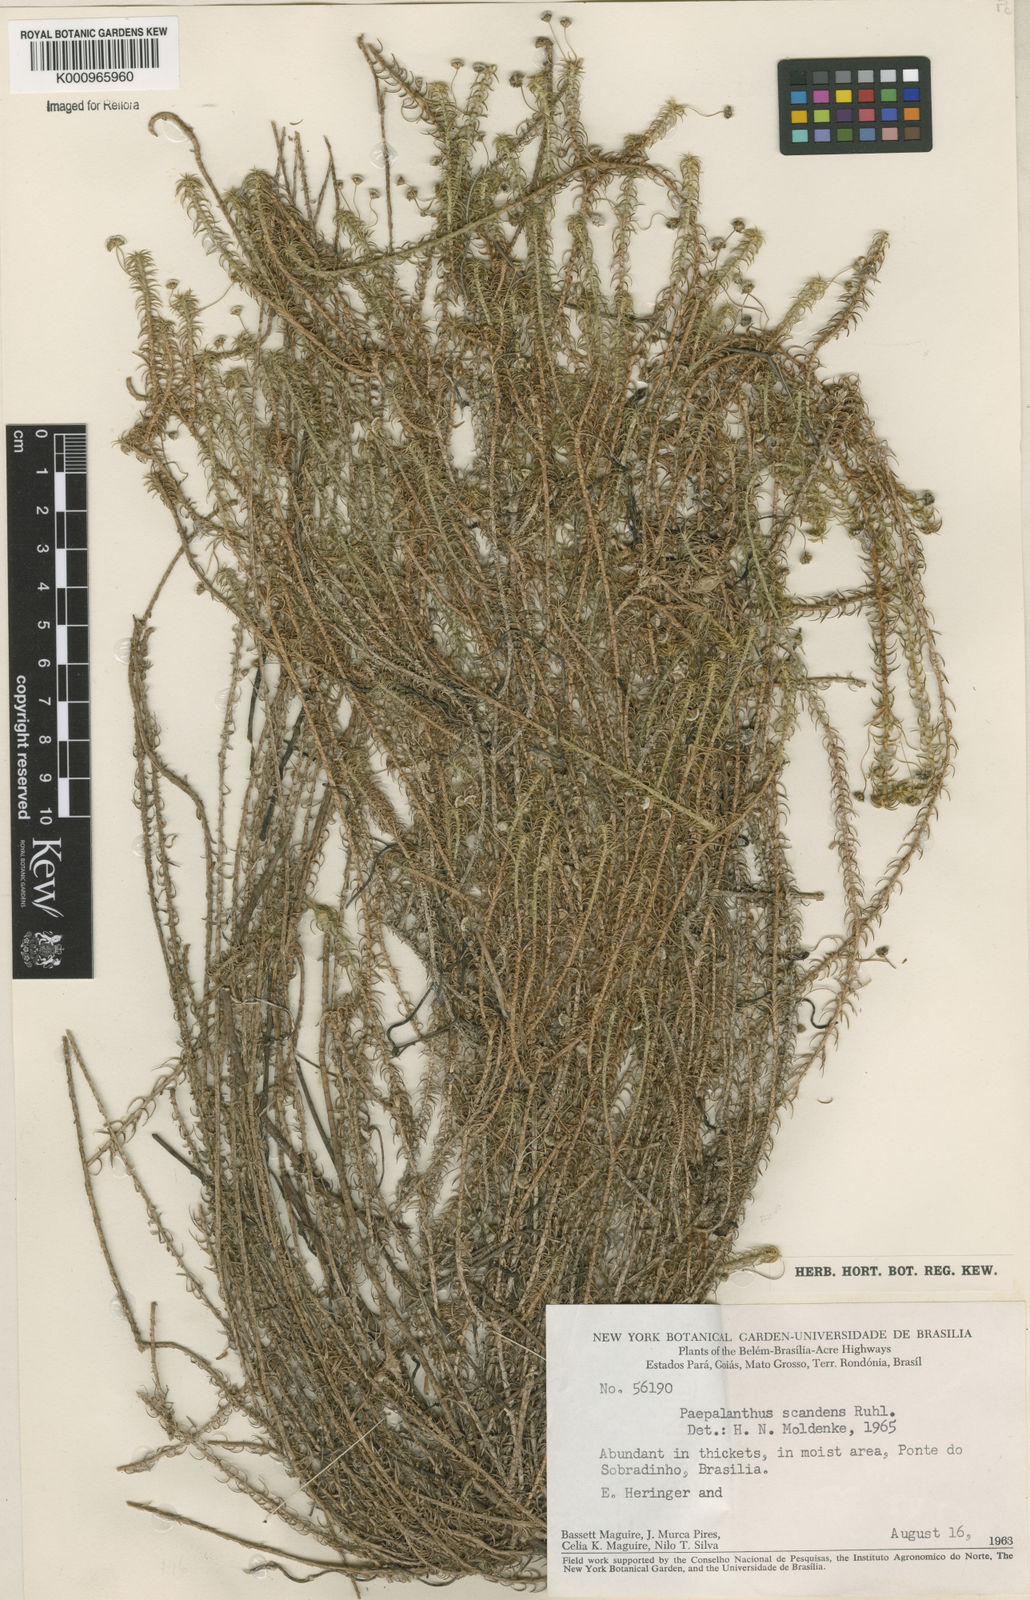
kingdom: Plantae
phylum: Tracheophyta
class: Liliopsida
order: Poales
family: Eriocaulaceae
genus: Paepalanthus
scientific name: Paepalanthus scandens
